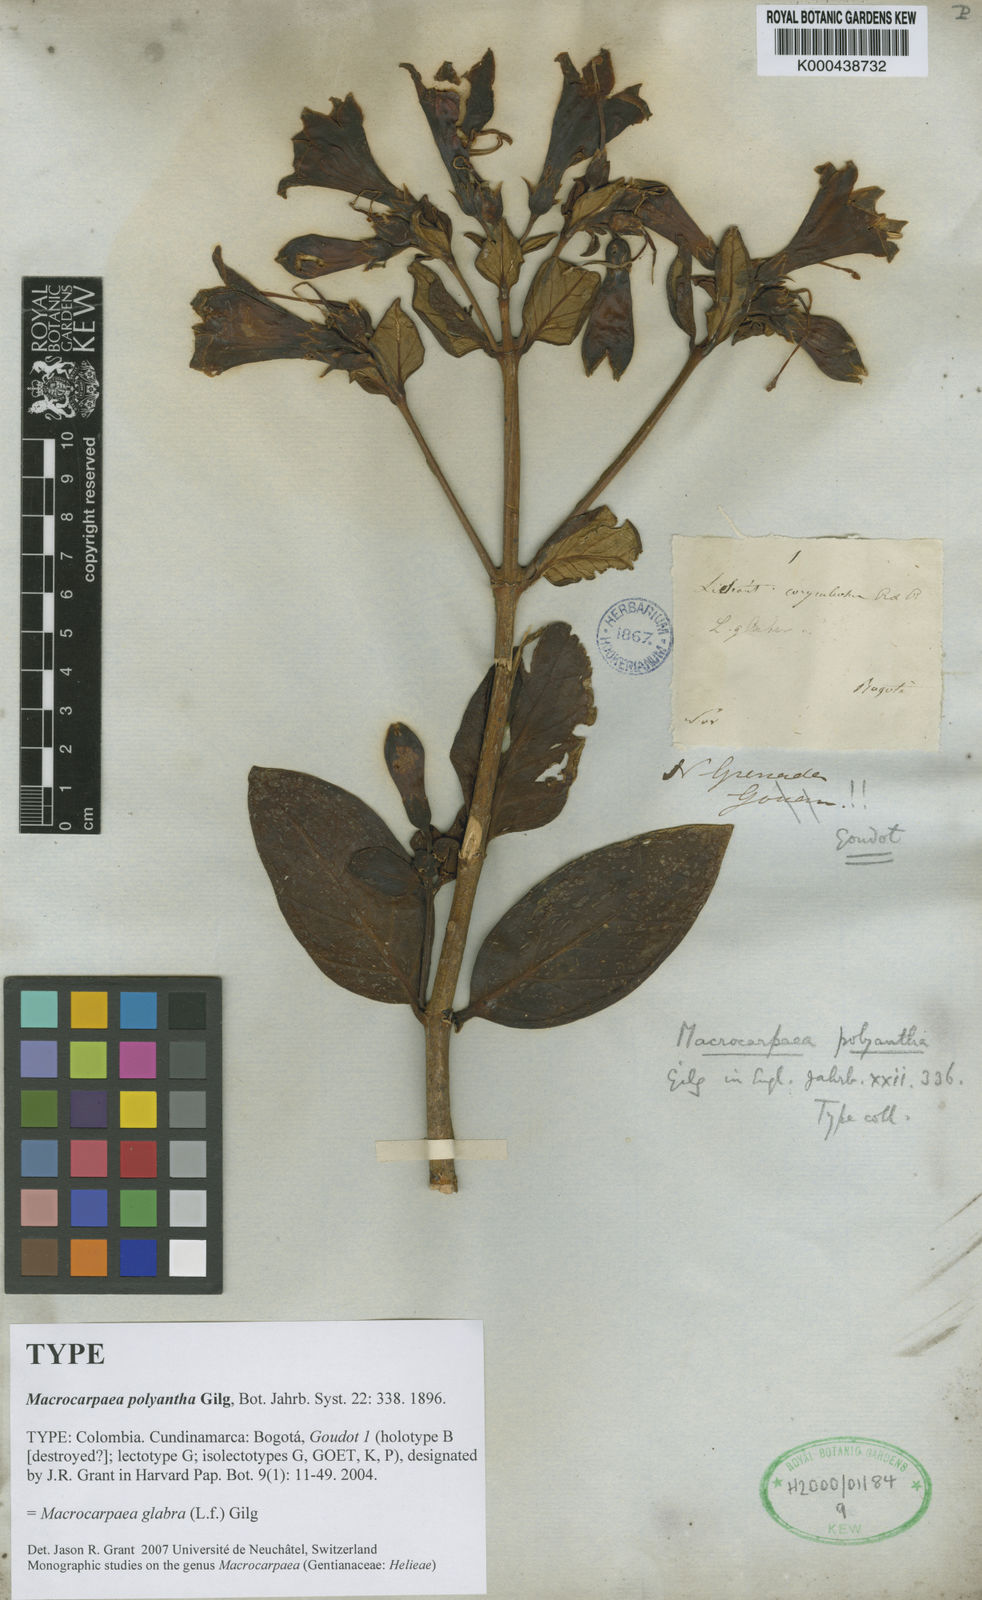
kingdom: Plantae
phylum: Tracheophyta
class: Magnoliopsida
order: Gentianales
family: Gentianaceae
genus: Macrocarpaea
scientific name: Macrocarpaea glabra
